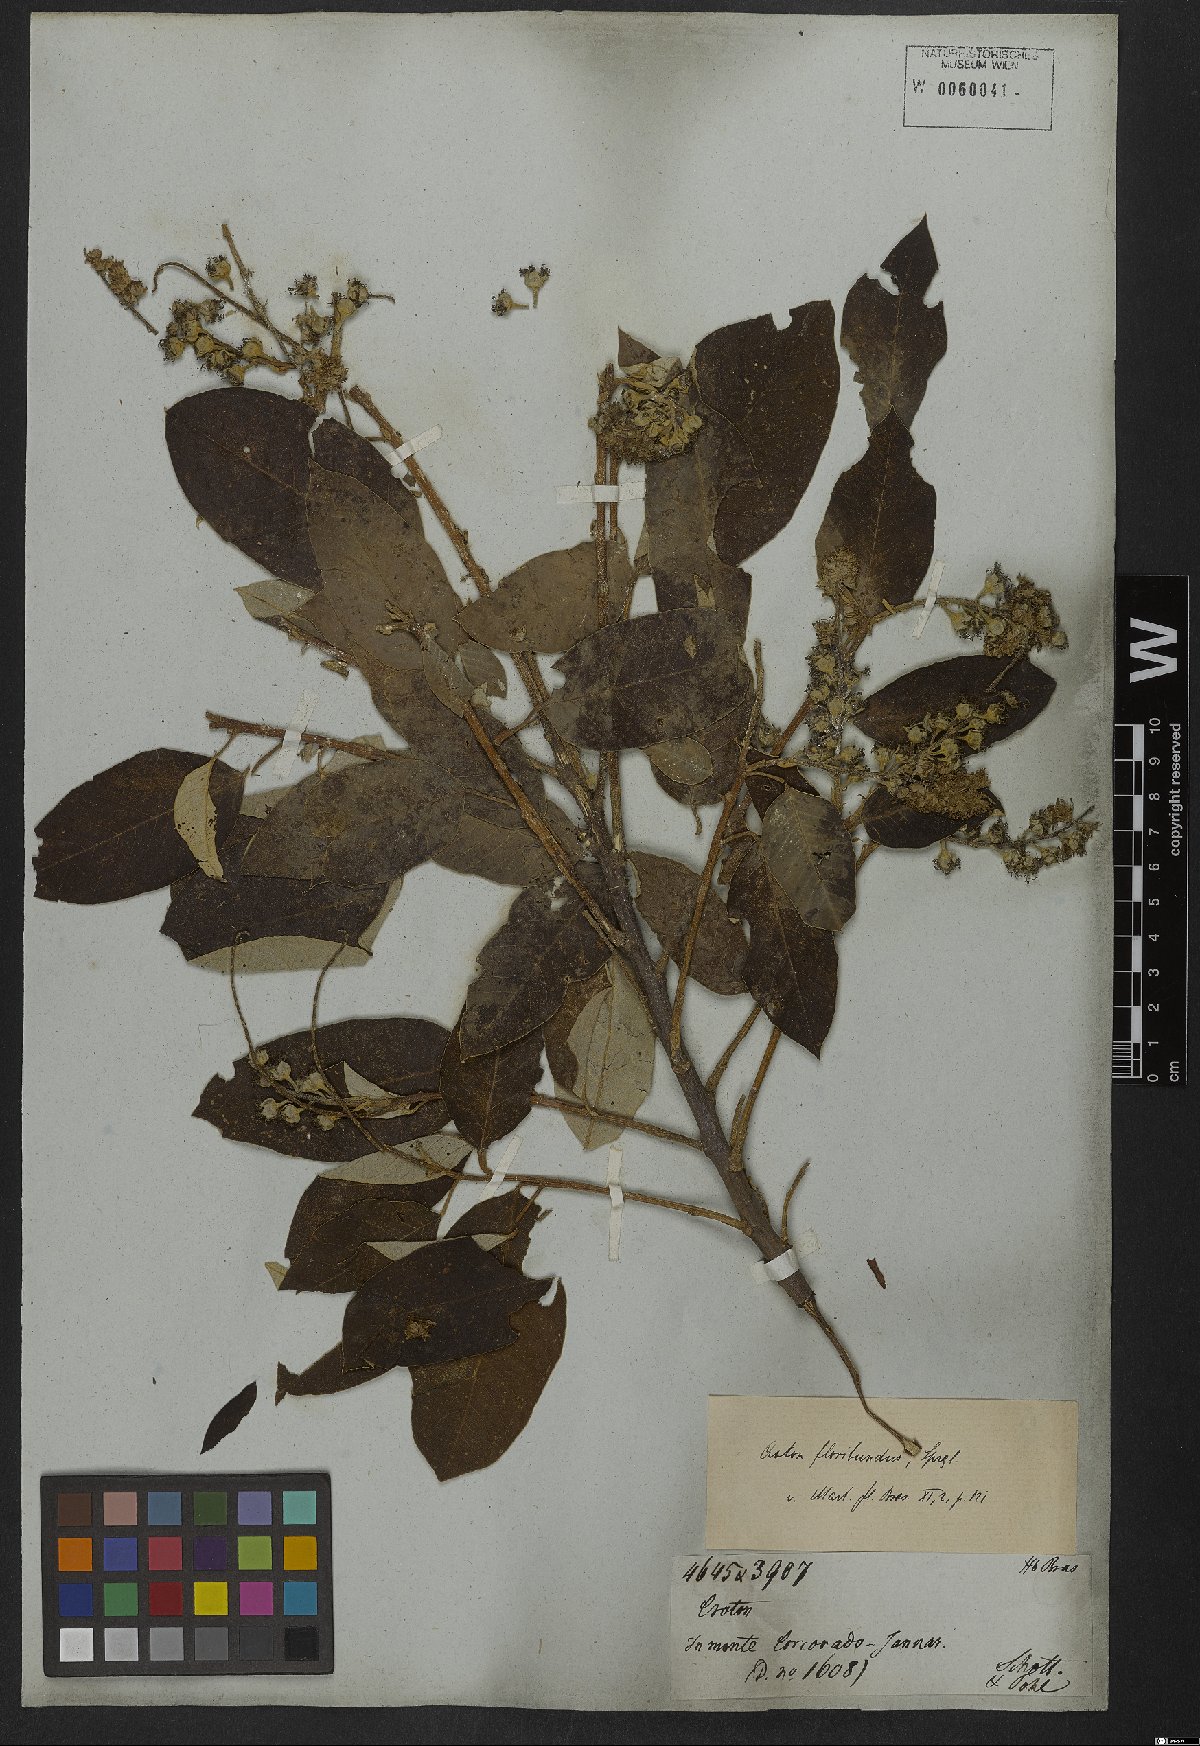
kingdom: Plantae
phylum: Tracheophyta
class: Magnoliopsida
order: Malpighiales
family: Euphorbiaceae
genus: Croton
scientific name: Croton floribundus
